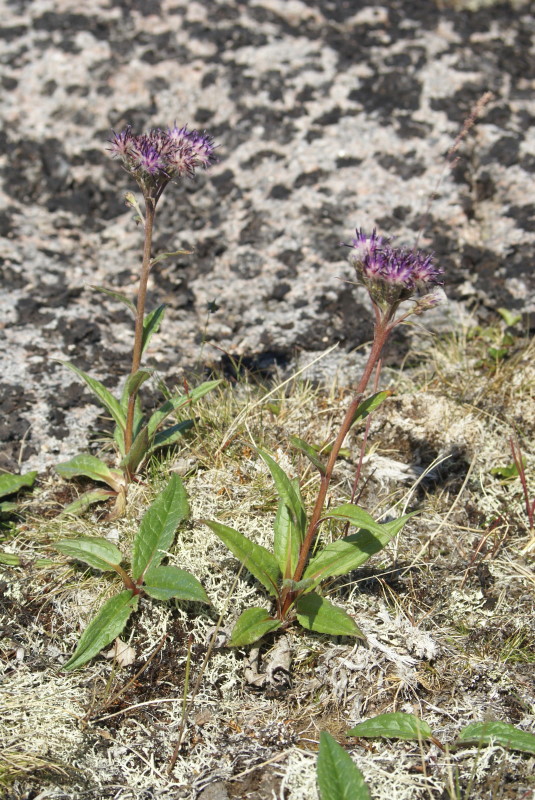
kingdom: Plantae
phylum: Tracheophyta
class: Magnoliopsida
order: Asterales
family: Asteraceae
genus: Saussurea
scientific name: Saussurea alpina
